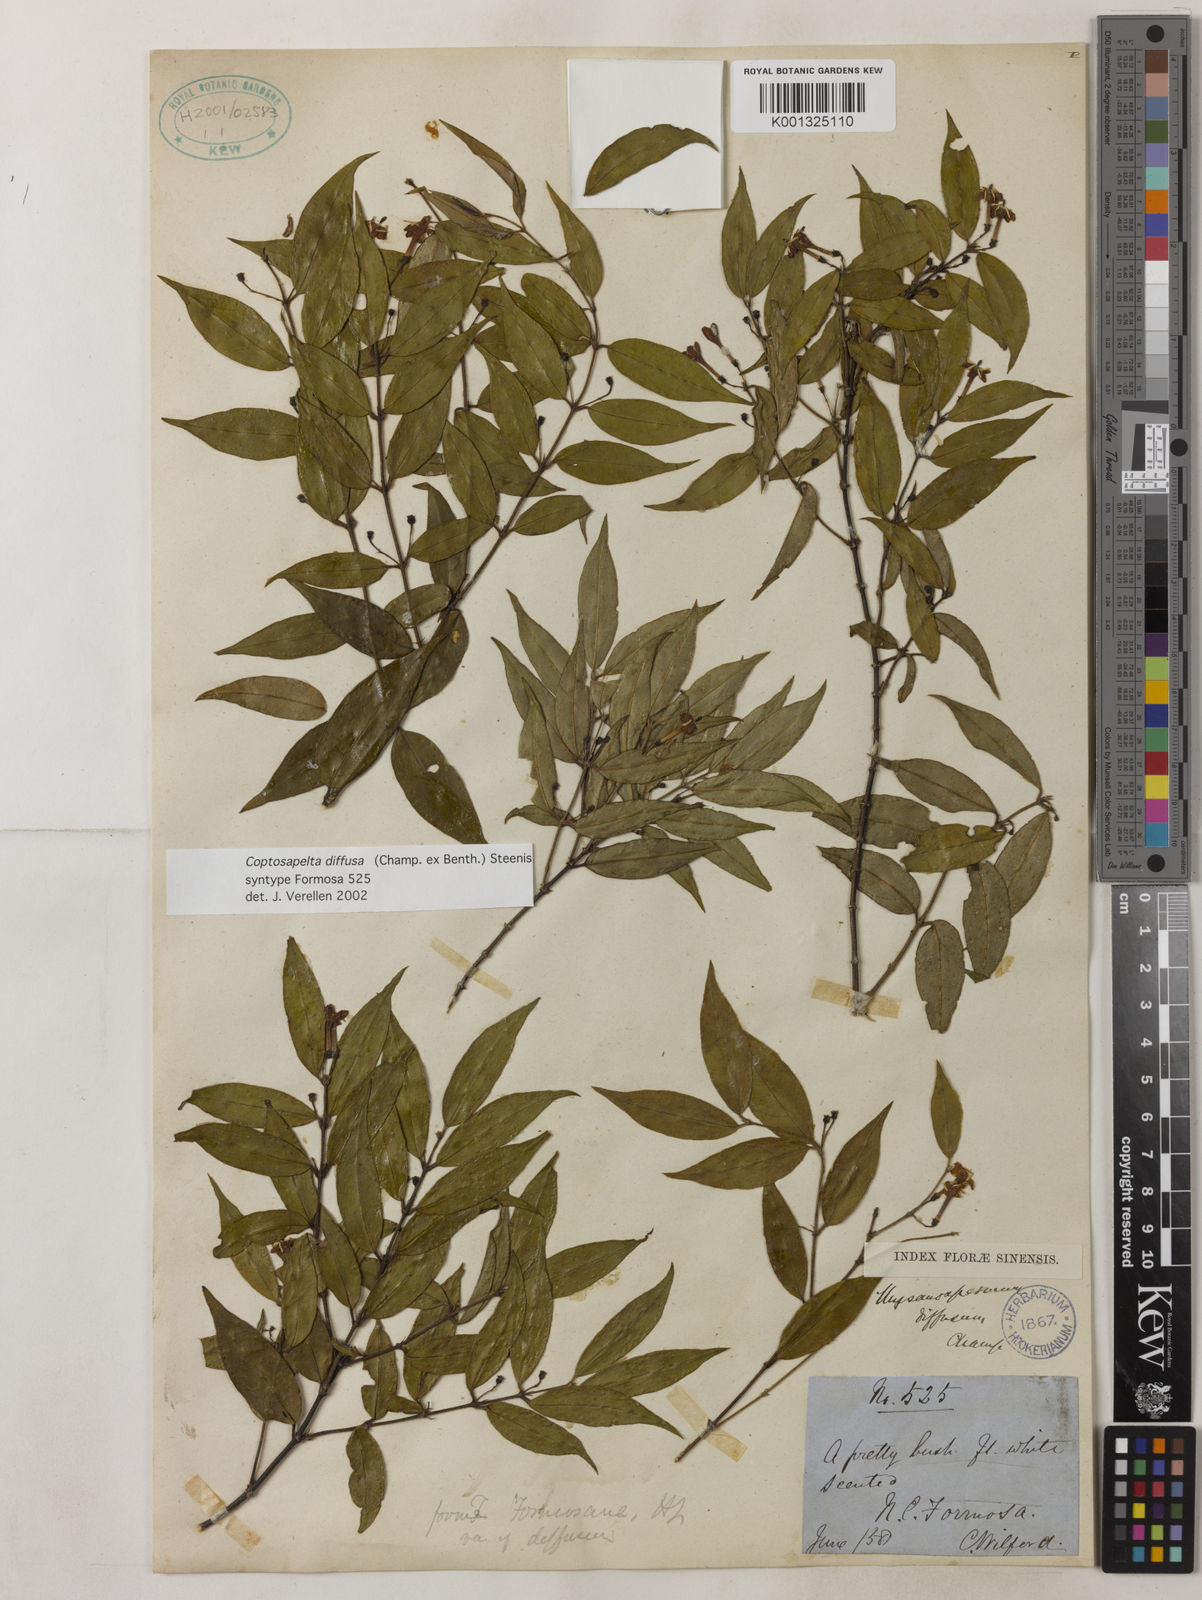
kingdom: Plantae
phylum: Tracheophyta
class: Magnoliopsida
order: Gentianales
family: Rubiaceae
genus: Coptosapelta
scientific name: Coptosapelta diffusa
